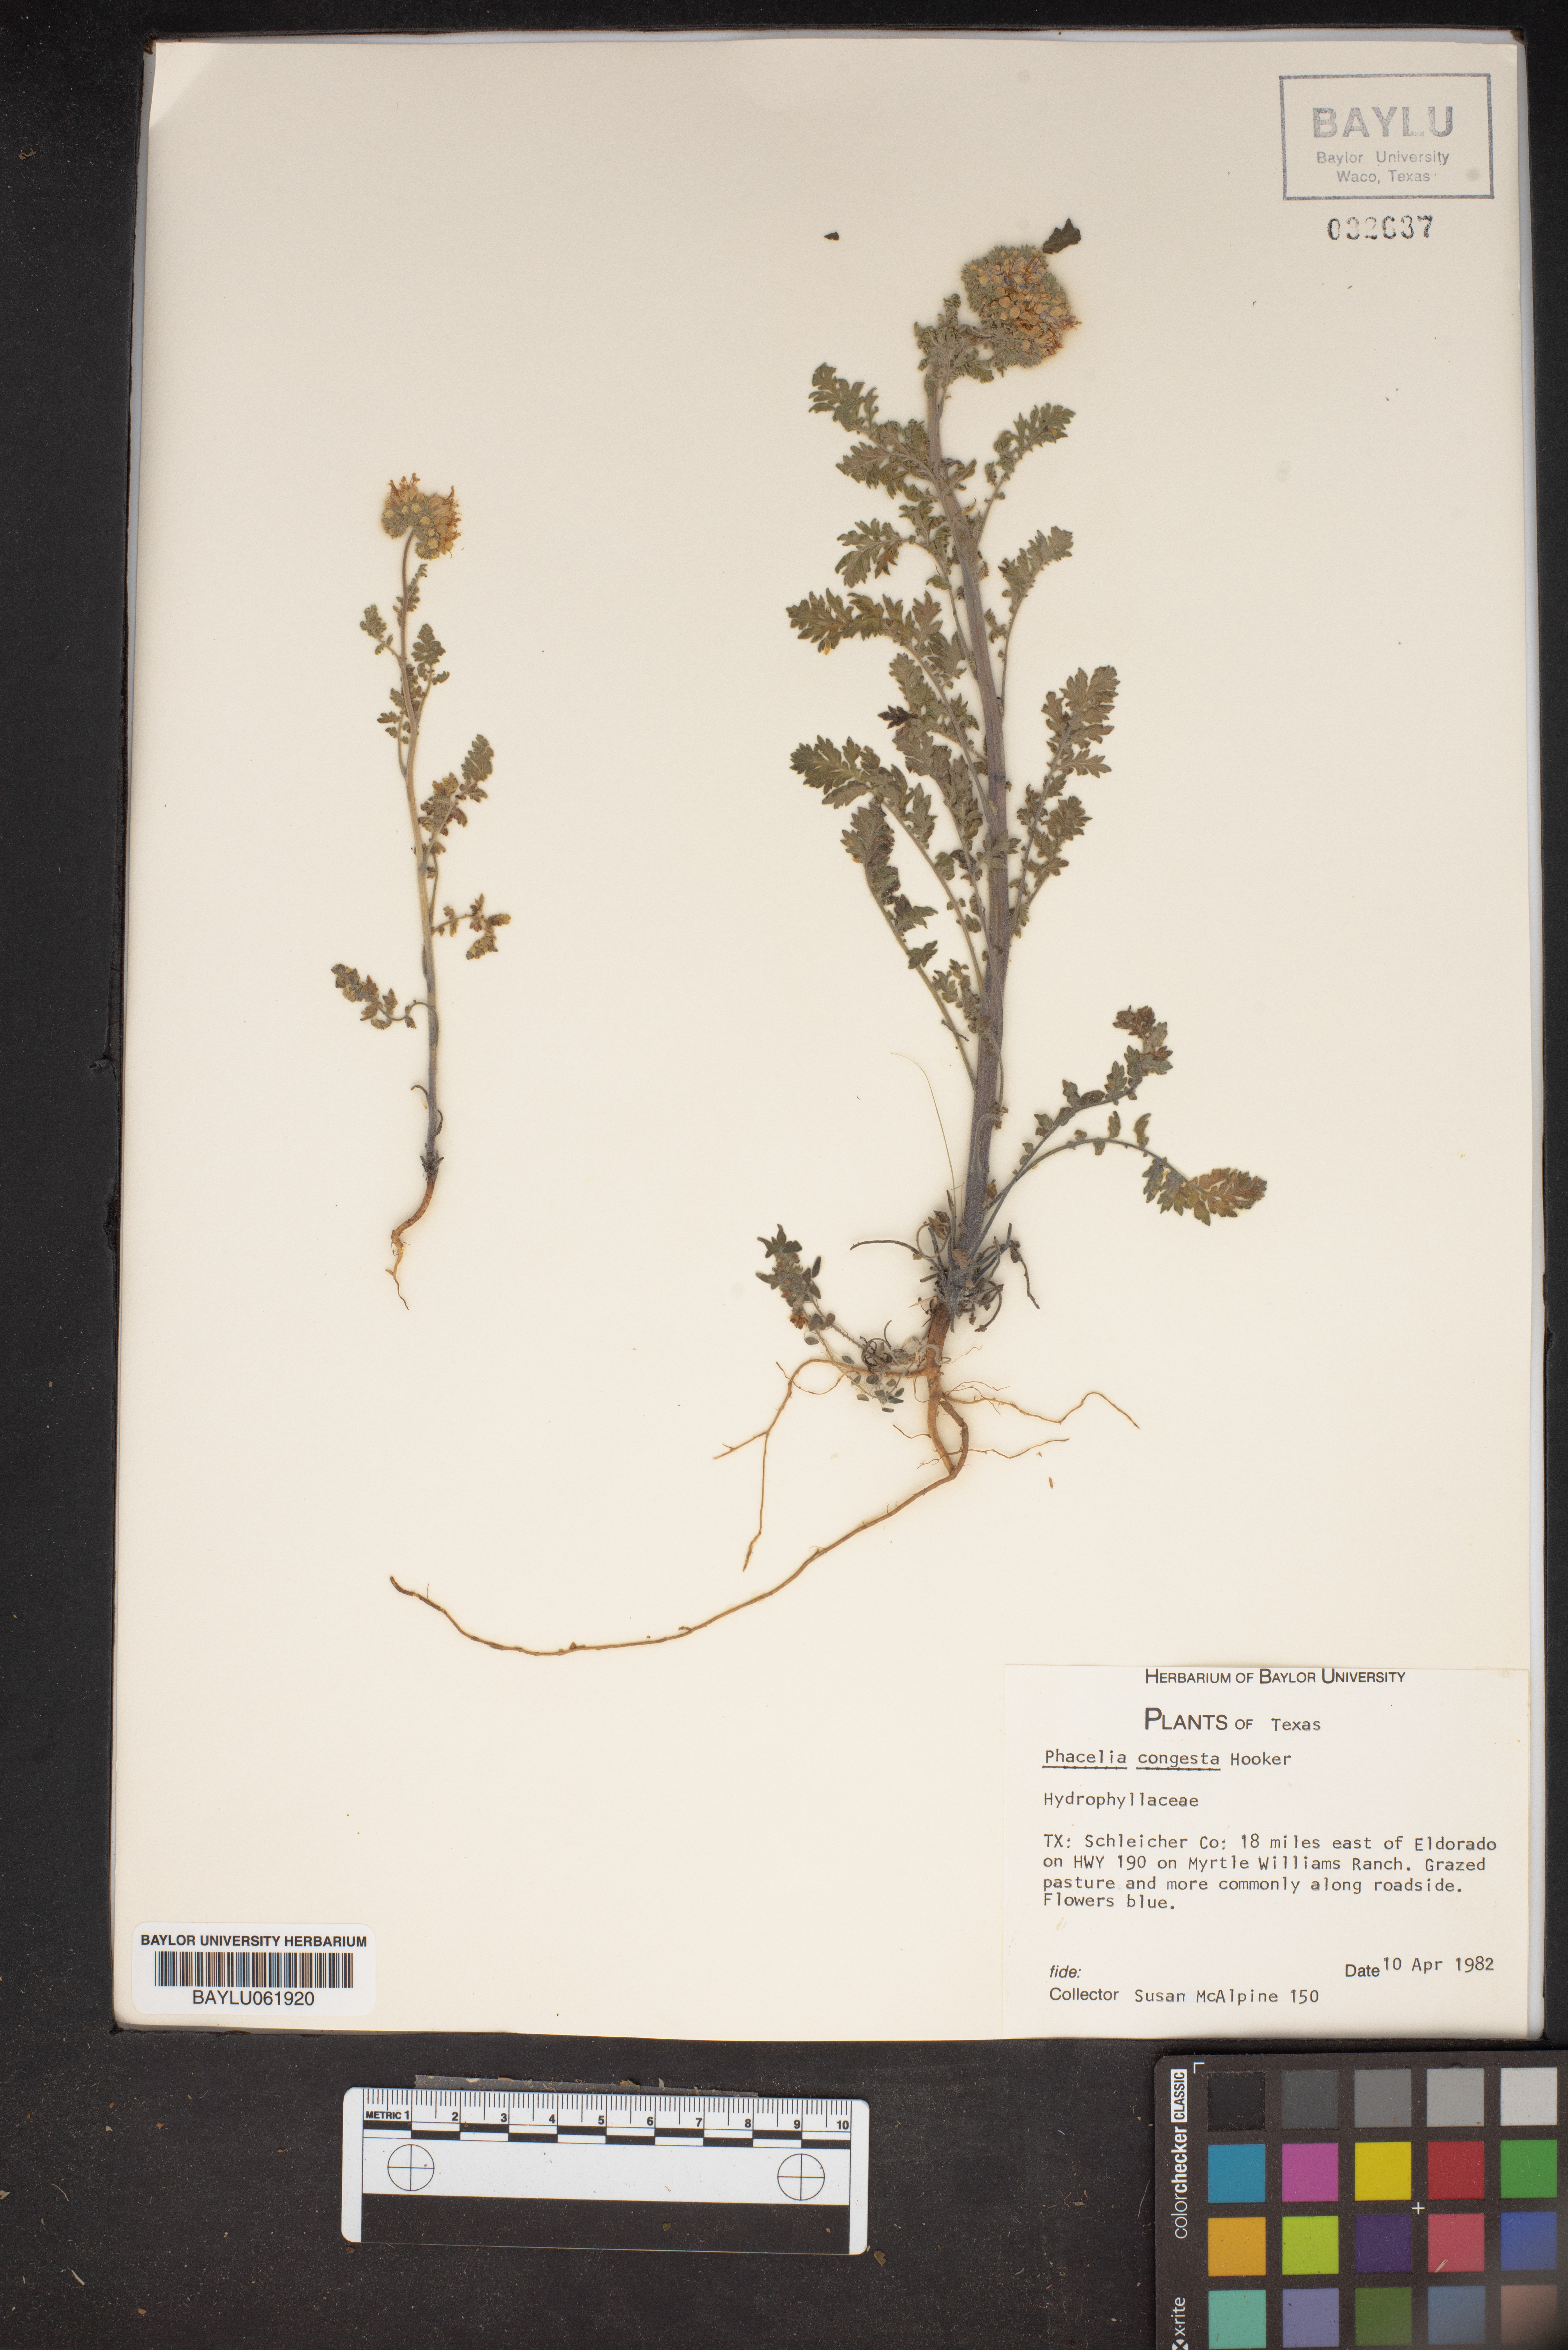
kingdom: Plantae
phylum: Tracheophyta
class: Magnoliopsida
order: Boraginales
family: Hydrophyllaceae
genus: Phacelia
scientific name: Phacelia congesta
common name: Blue curls
